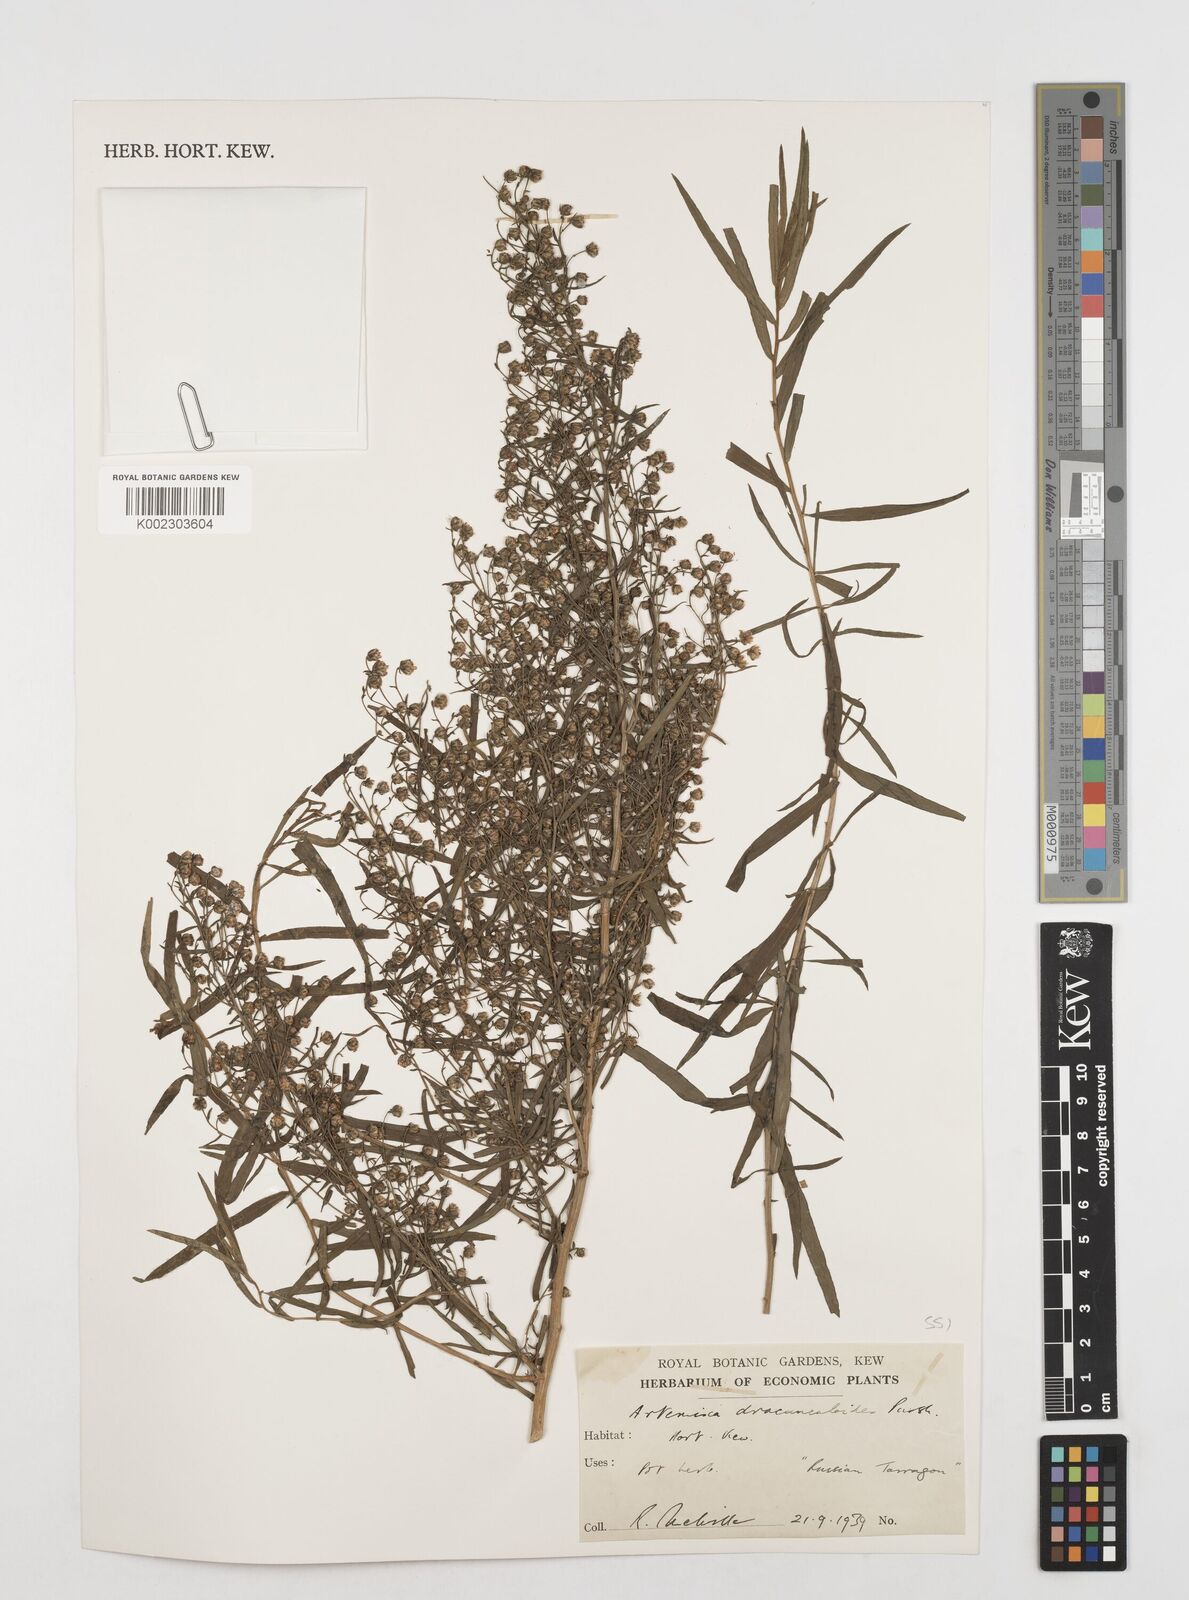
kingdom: Plantae
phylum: Tracheophyta
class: Magnoliopsida
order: Asterales
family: Asteraceae
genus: Artemisia
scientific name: Artemisia dracunculus
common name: Tarragon
